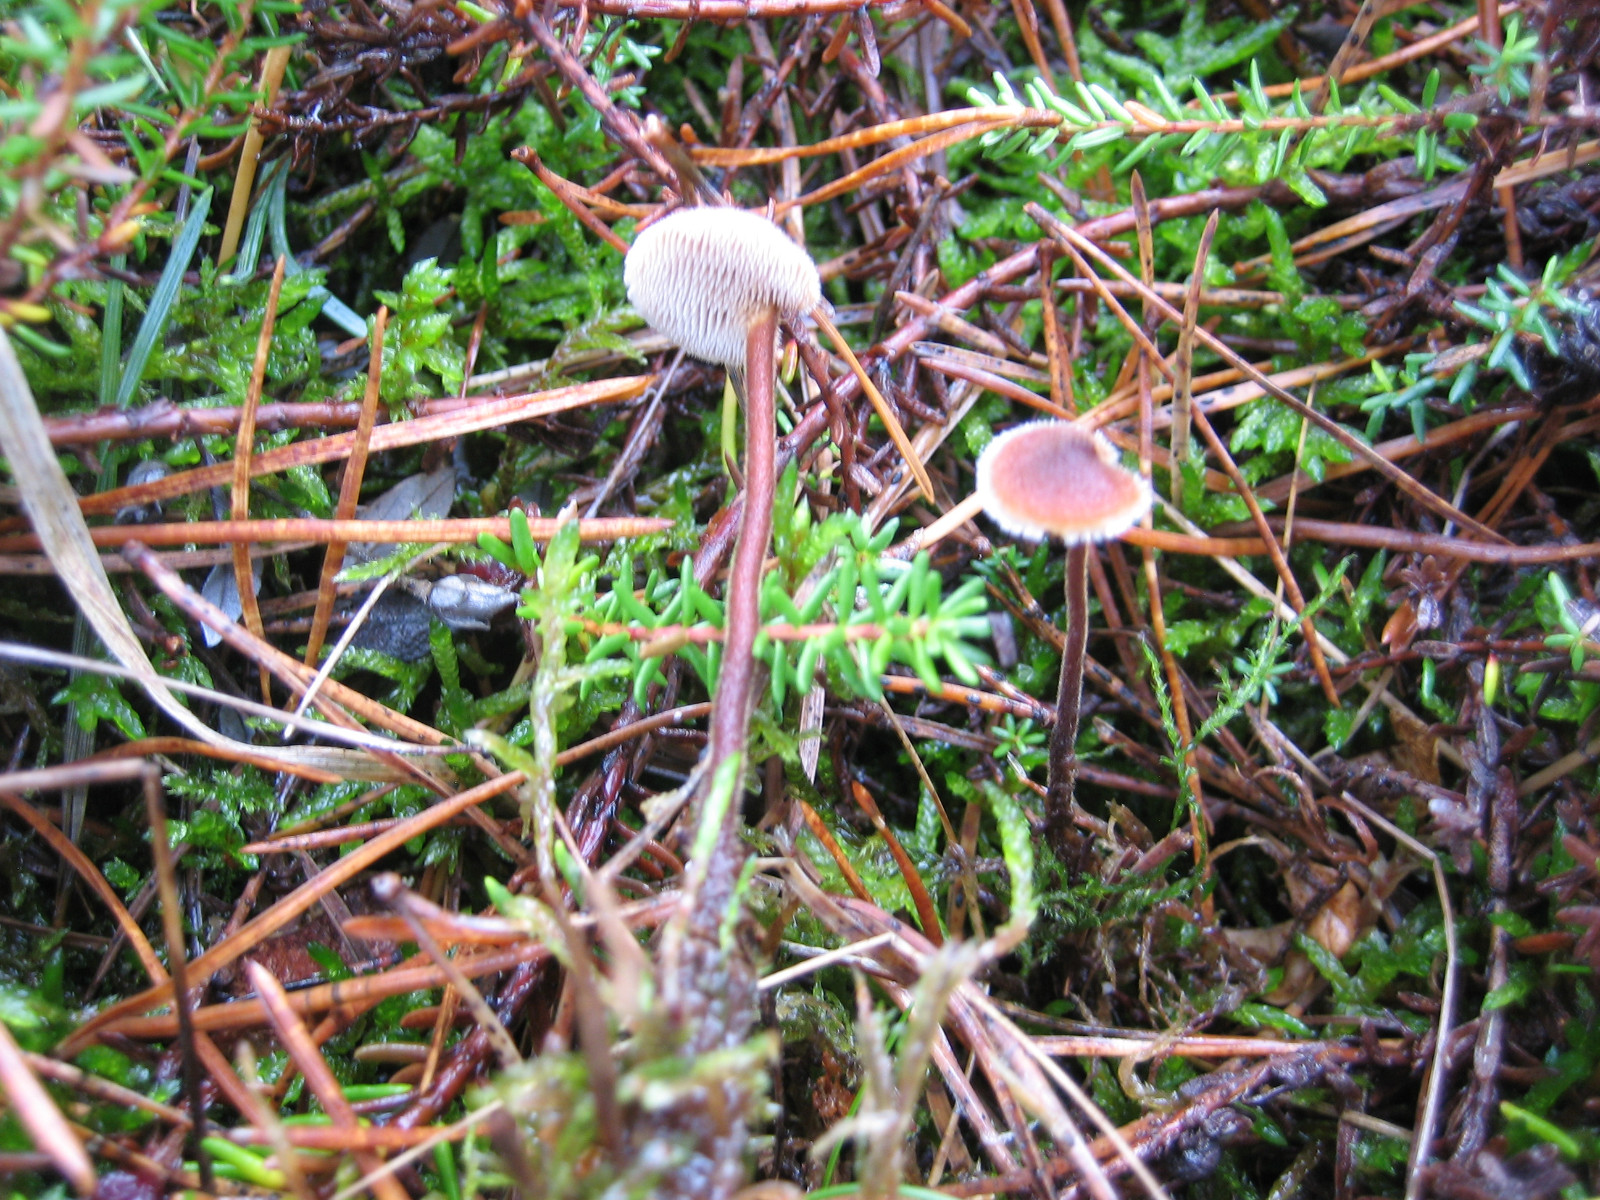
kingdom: Fungi
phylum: Basidiomycota
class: Agaricomycetes
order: Russulales
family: Auriscalpiaceae
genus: Auriscalpium
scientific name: Auriscalpium vulgare
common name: koglepigsvamp
